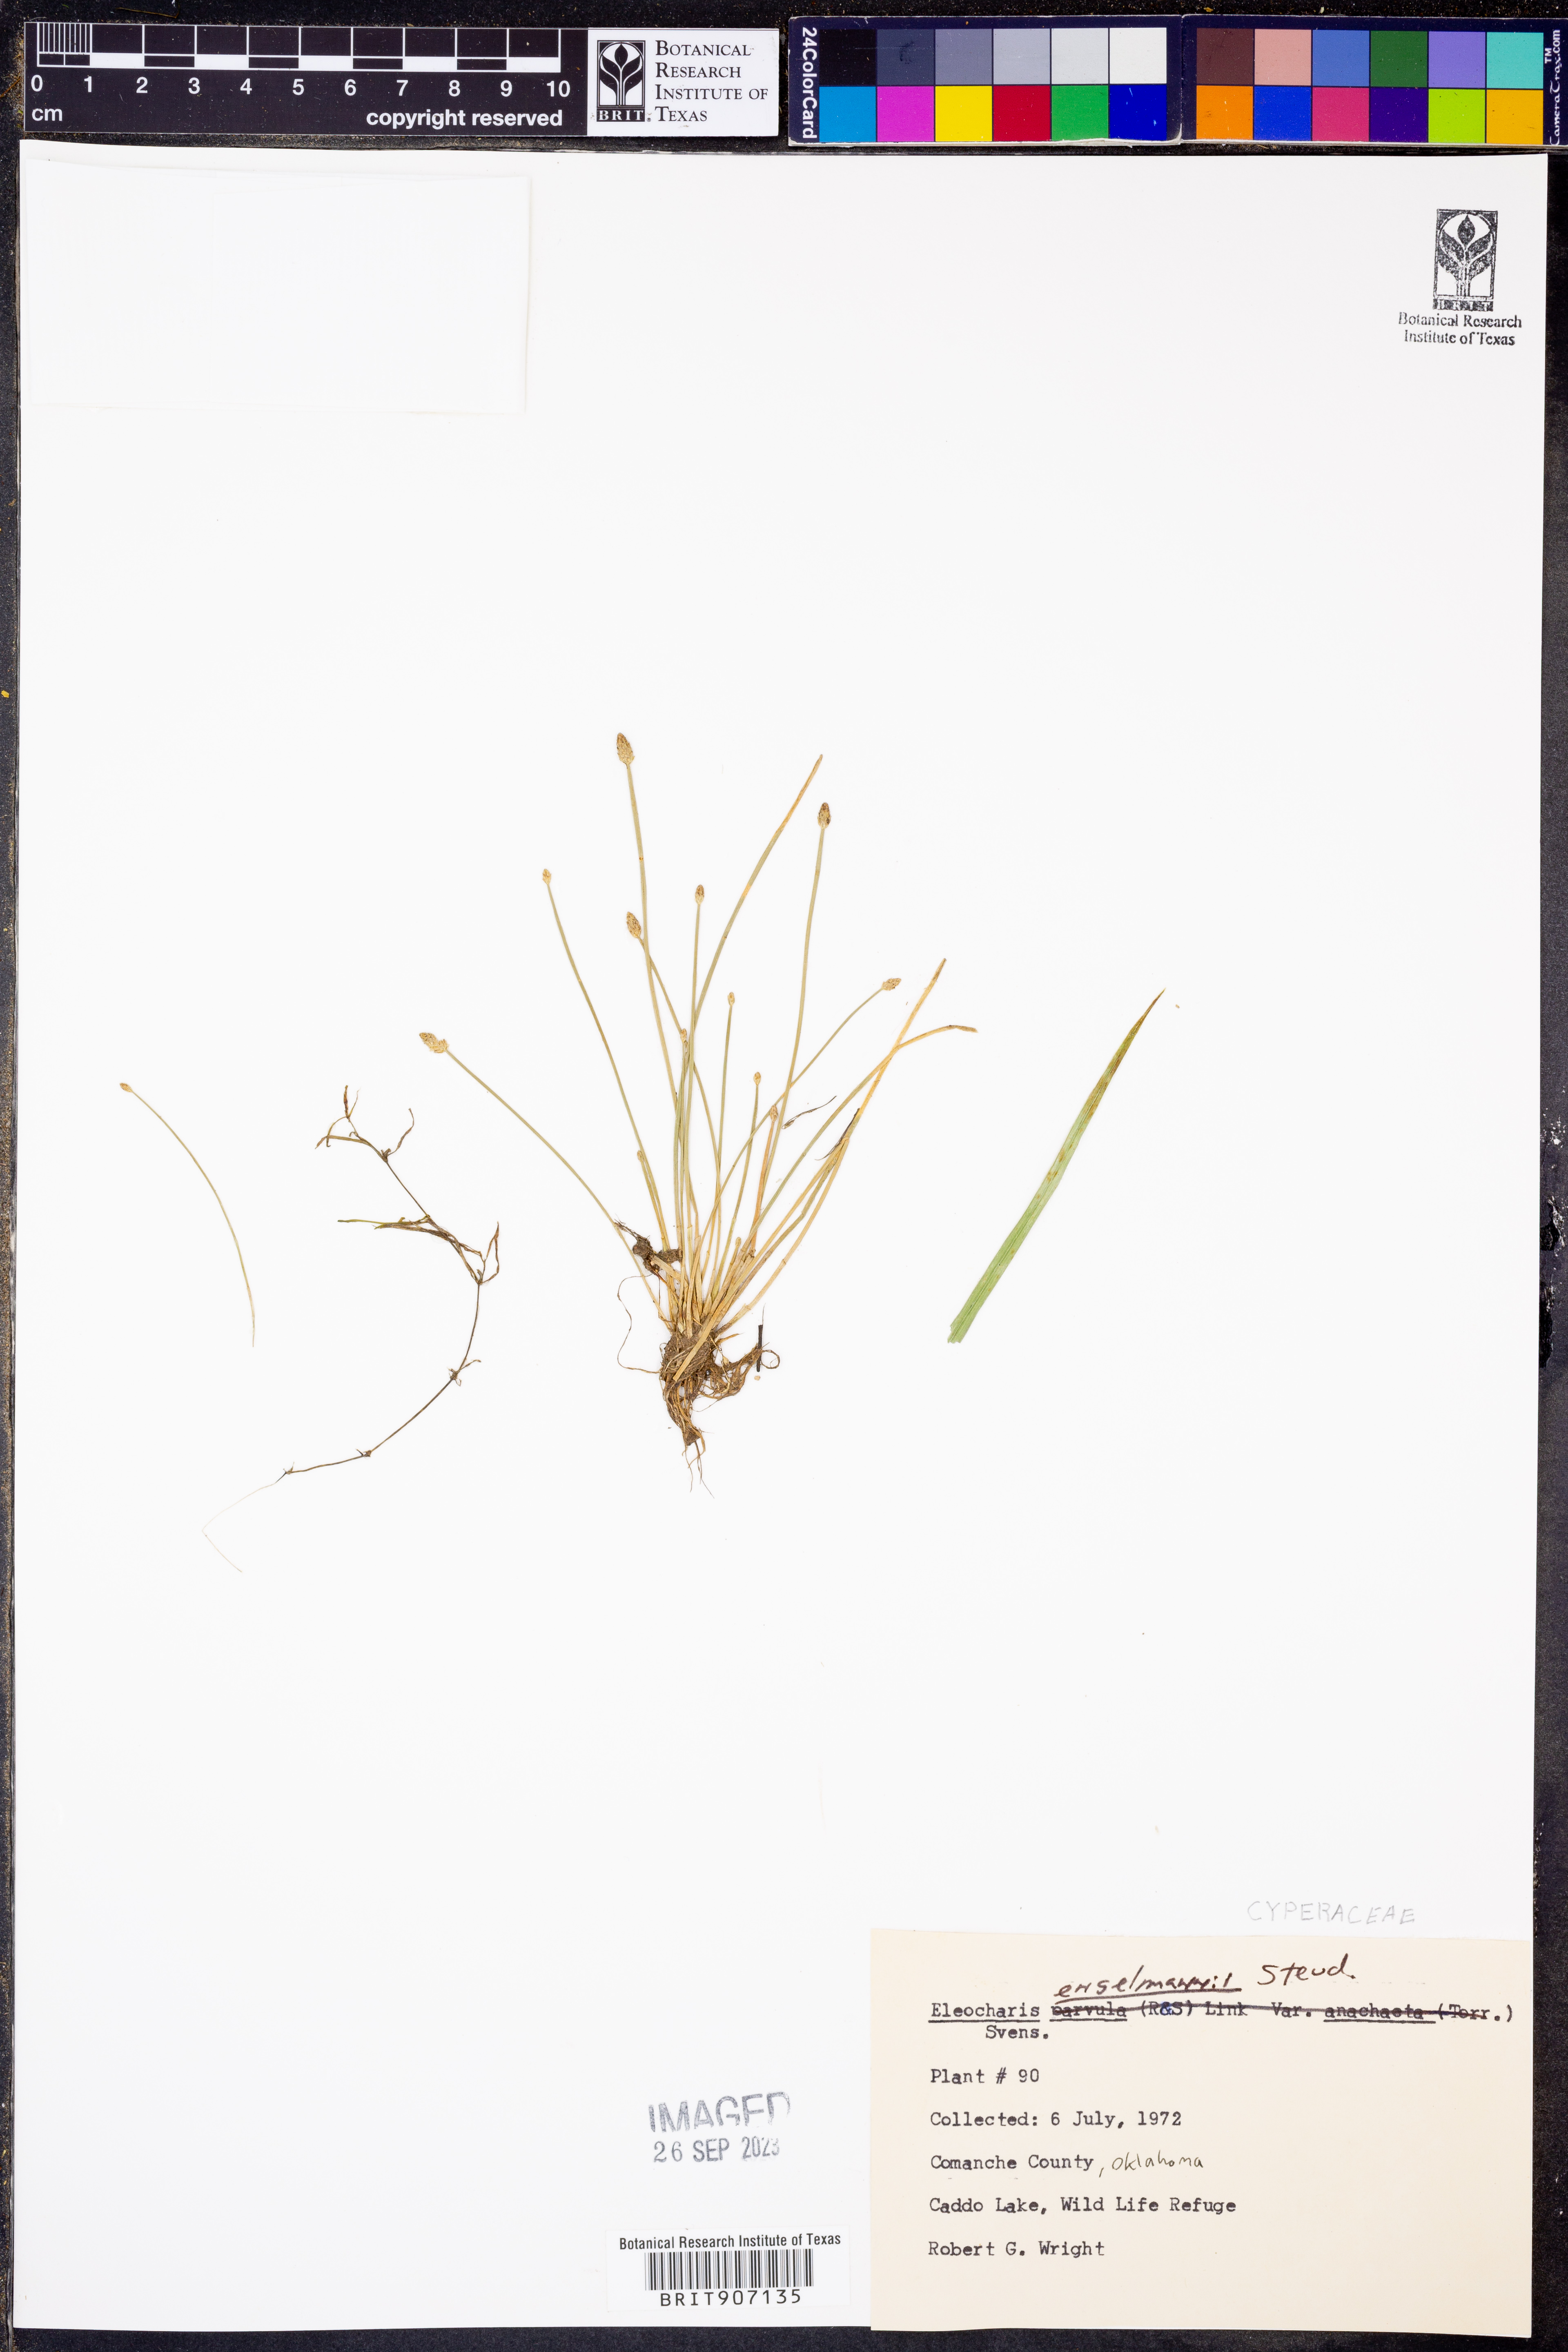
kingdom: Plantae
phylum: Tracheophyta
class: Liliopsida
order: Poales
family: Cyperaceae
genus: Eleocharis
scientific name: Eleocharis engelmannii
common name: Engelmann's spikerush
